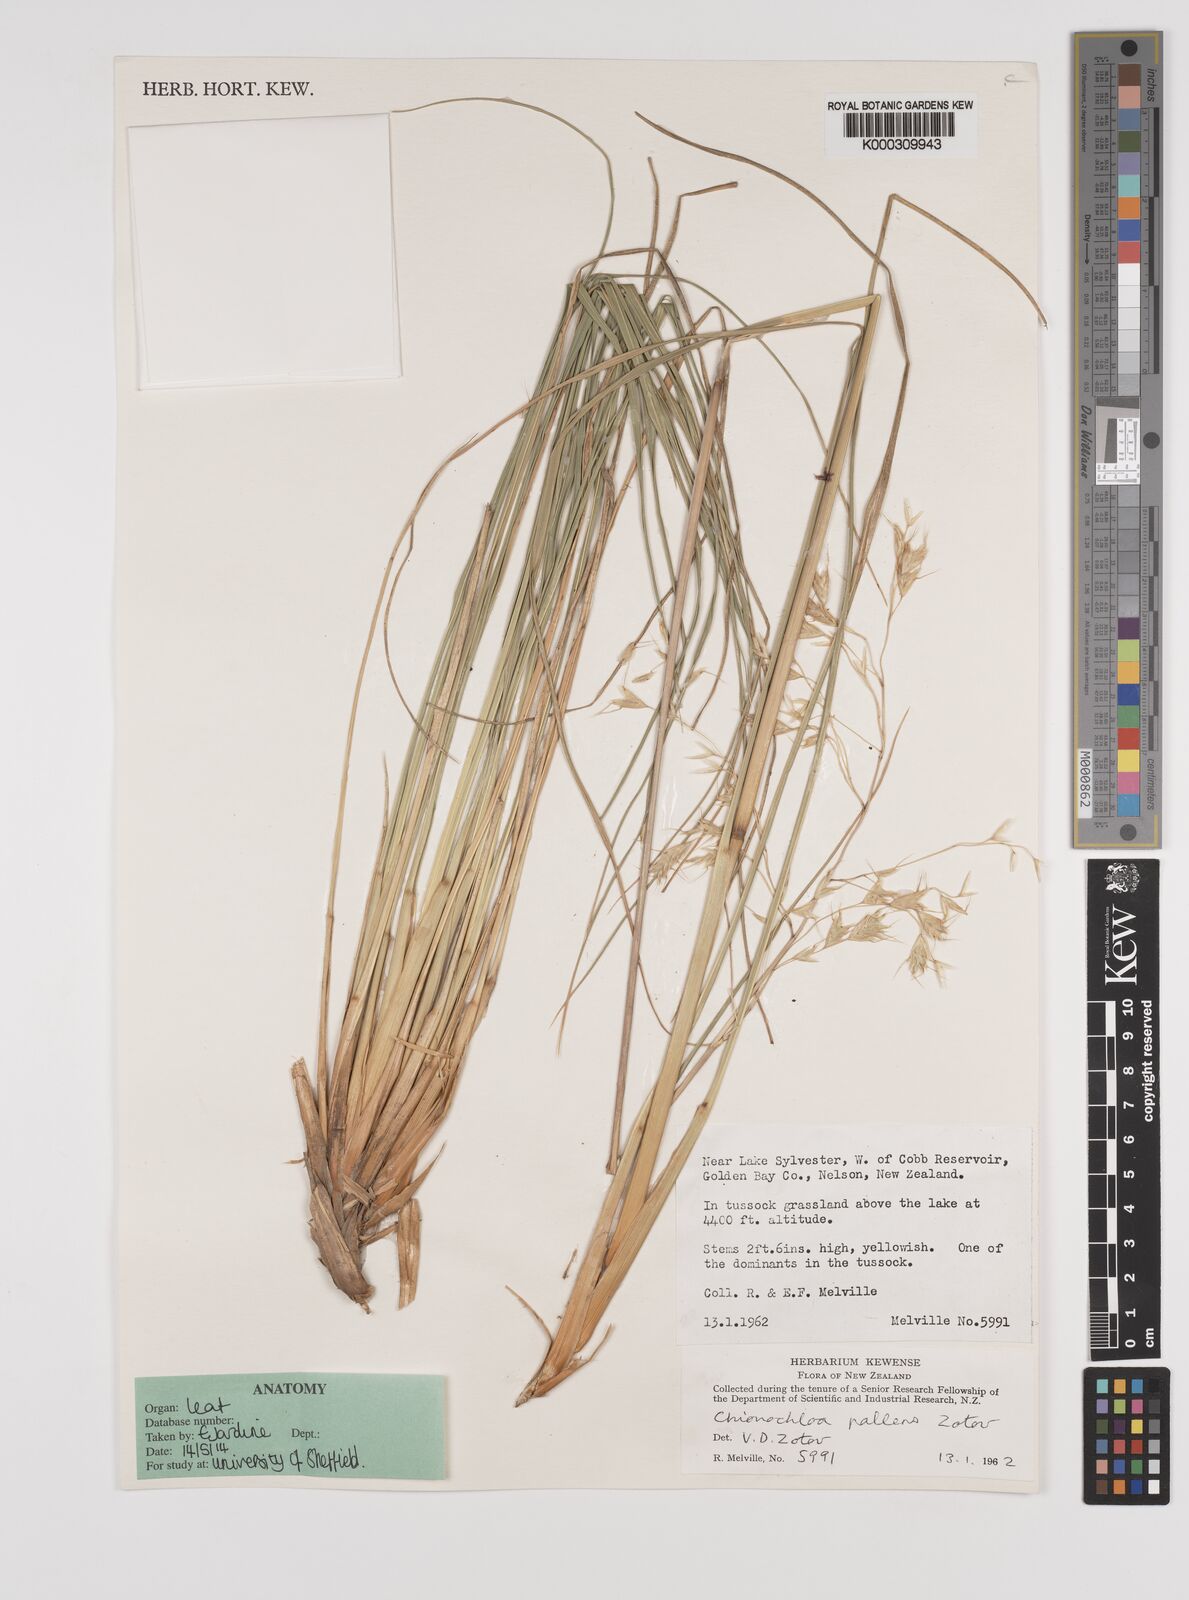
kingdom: Plantae
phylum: Tracheophyta
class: Liliopsida
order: Poales
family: Poaceae
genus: Chionochloa
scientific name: Chionochloa pallens
